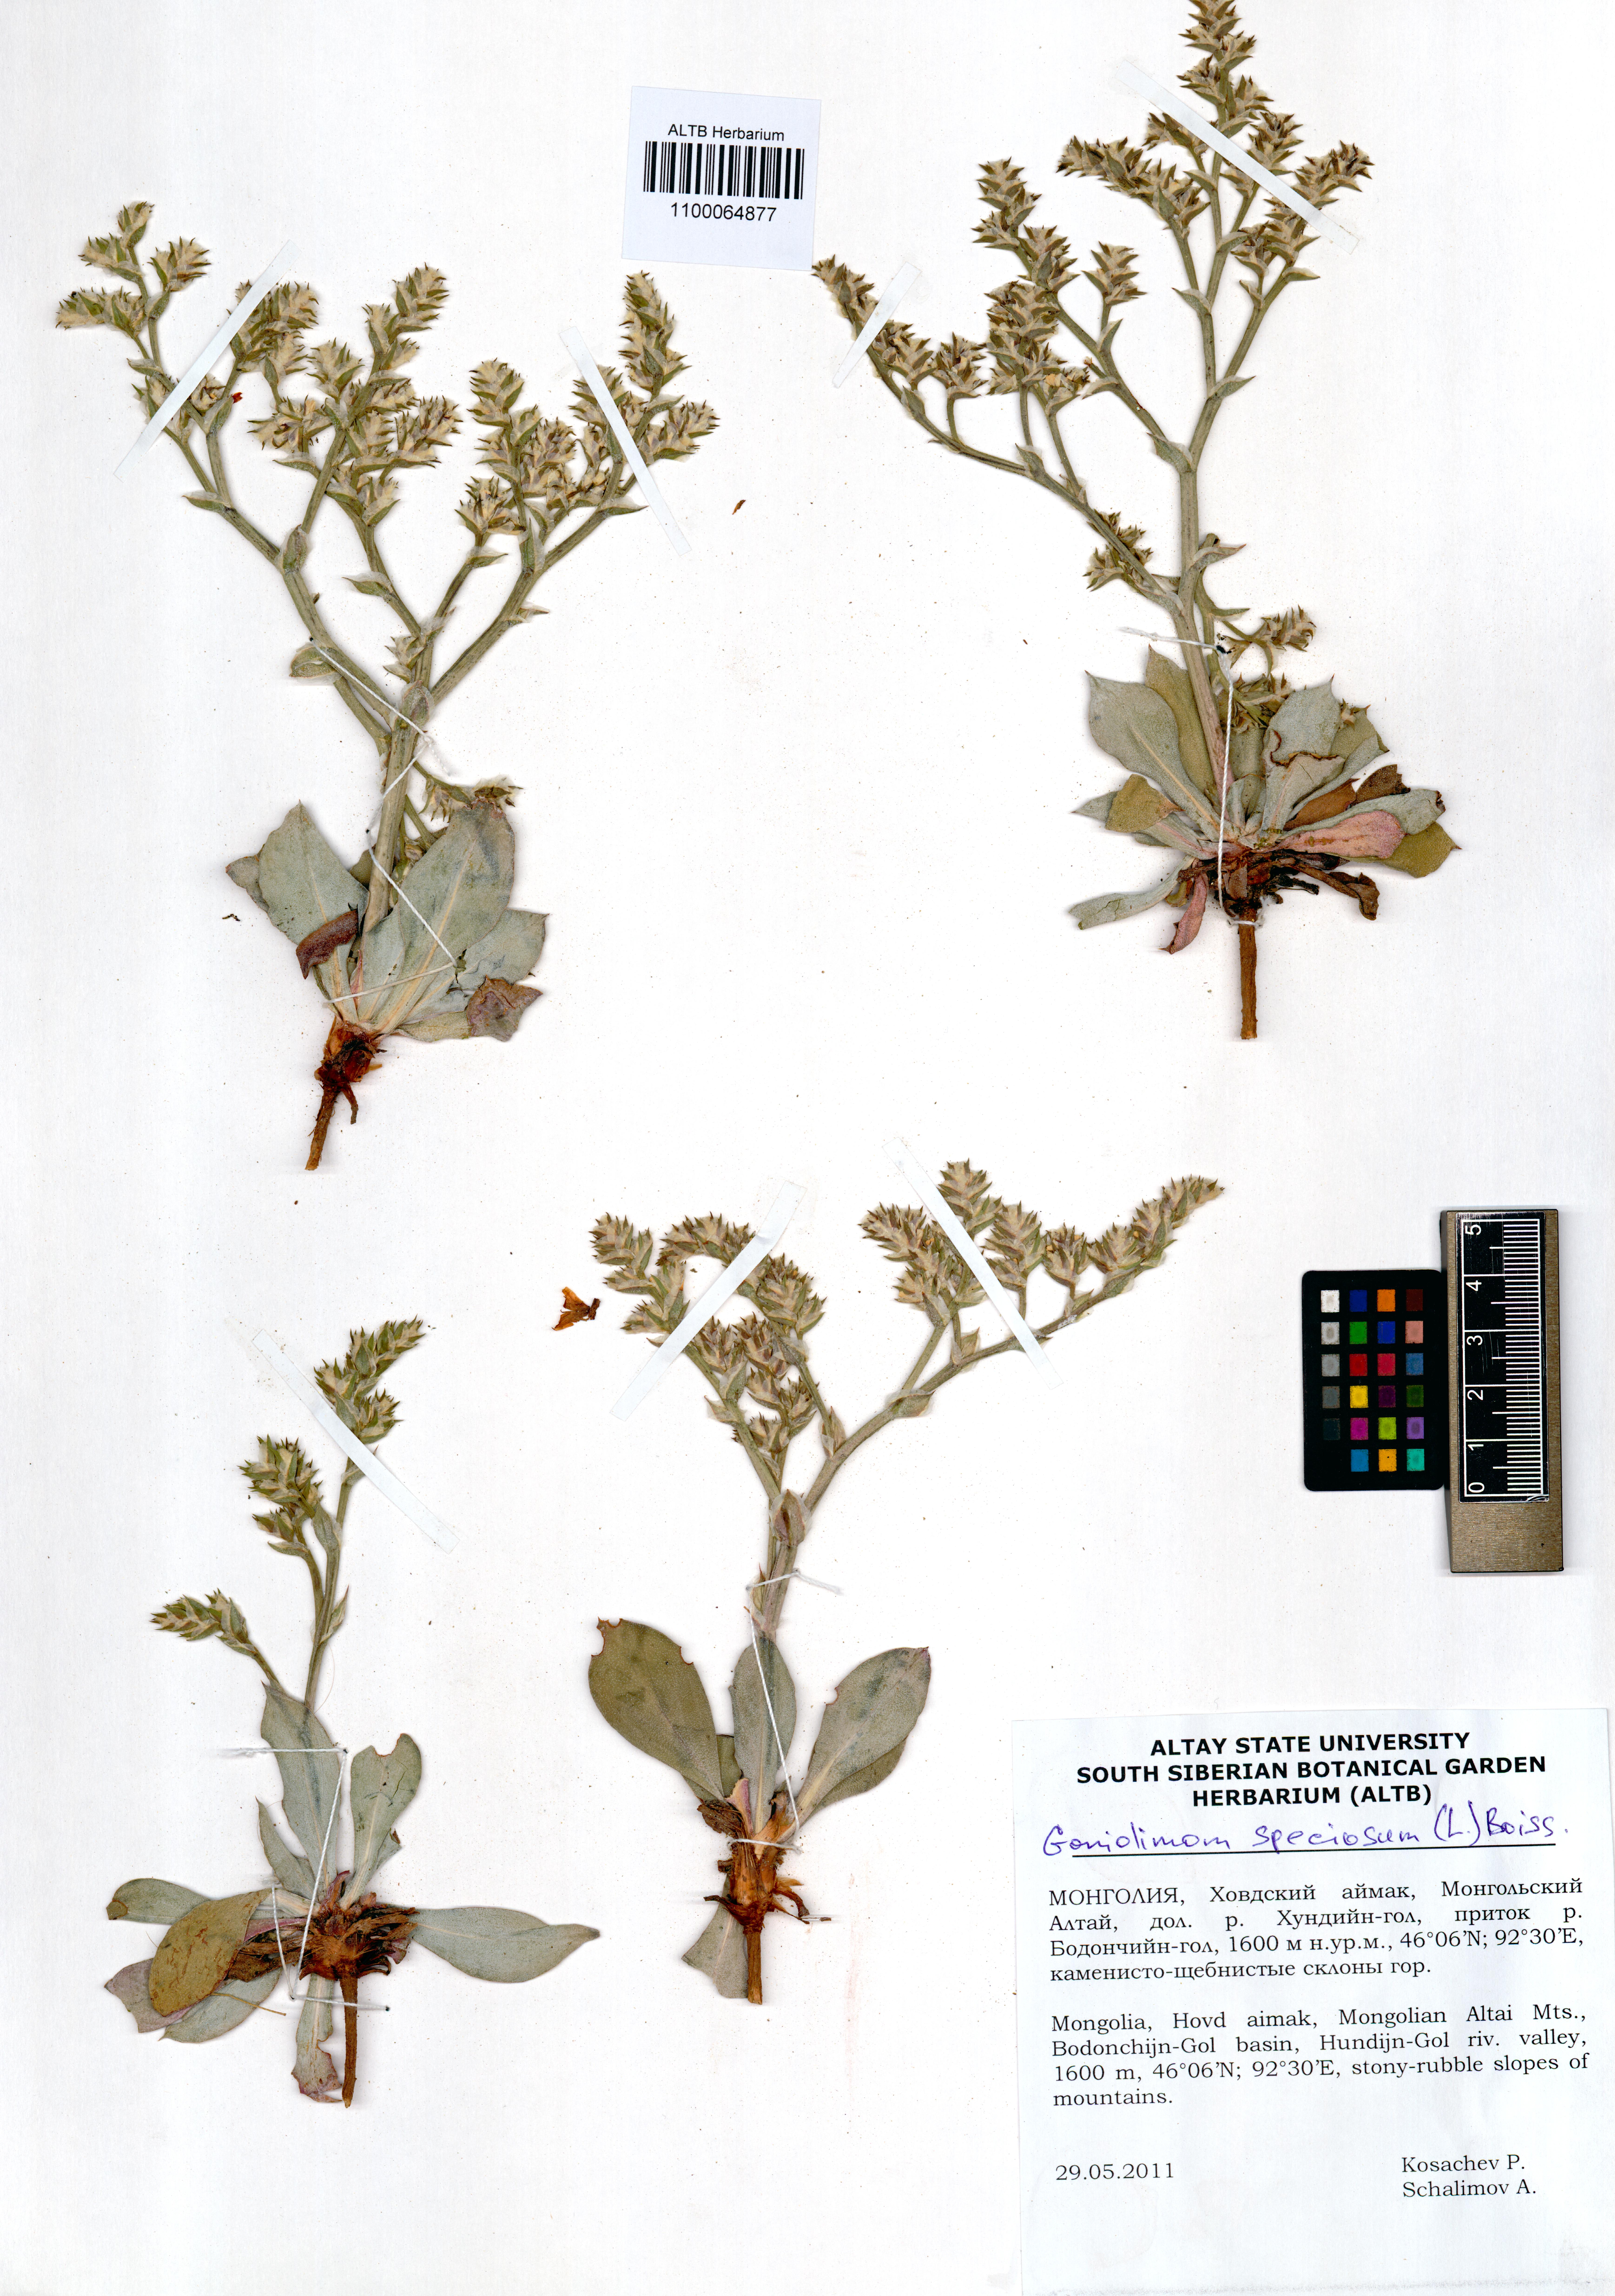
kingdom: Plantae
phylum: Tracheophyta
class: Magnoliopsida
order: Caryophyllales
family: Plumbaginaceae
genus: Goniolimon
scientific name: Goniolimon speciosum
